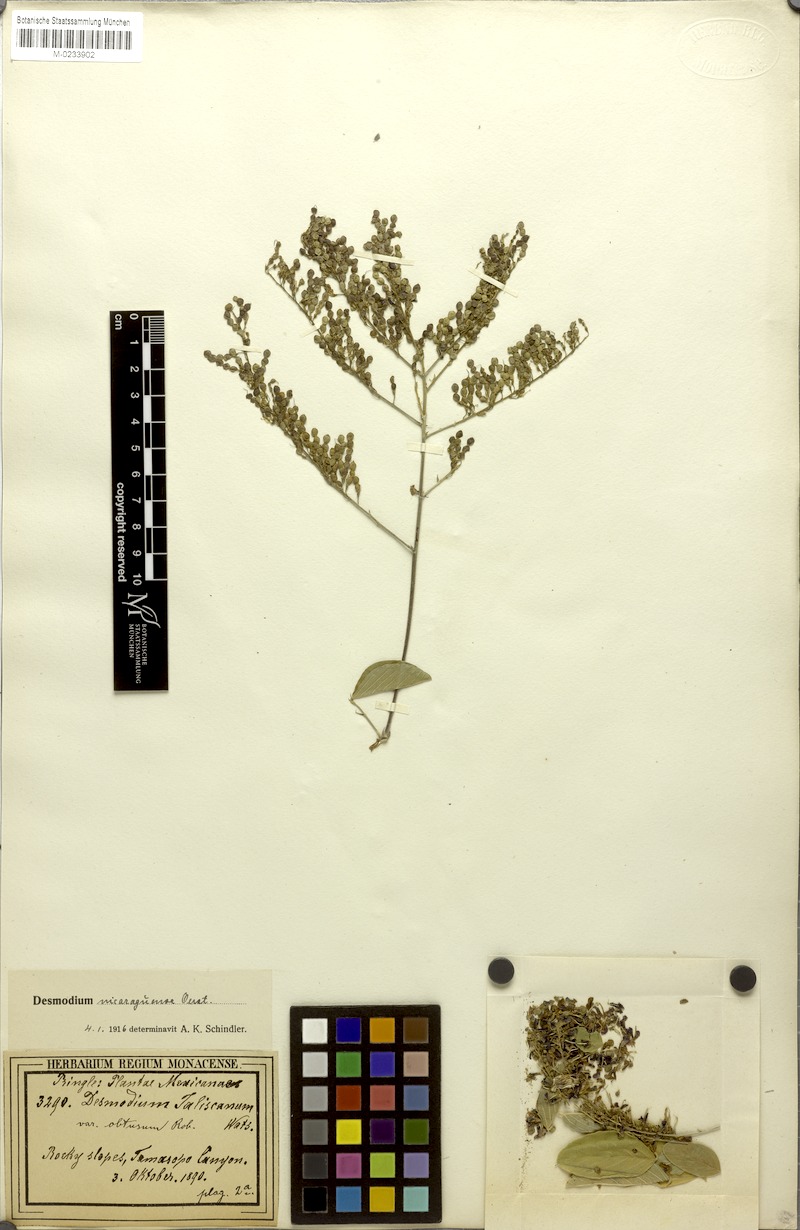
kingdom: Plantae
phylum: Tracheophyta
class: Magnoliopsida
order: Fabales
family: Fabaceae
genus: Desmodium
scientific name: Desmodium nicaraguense
